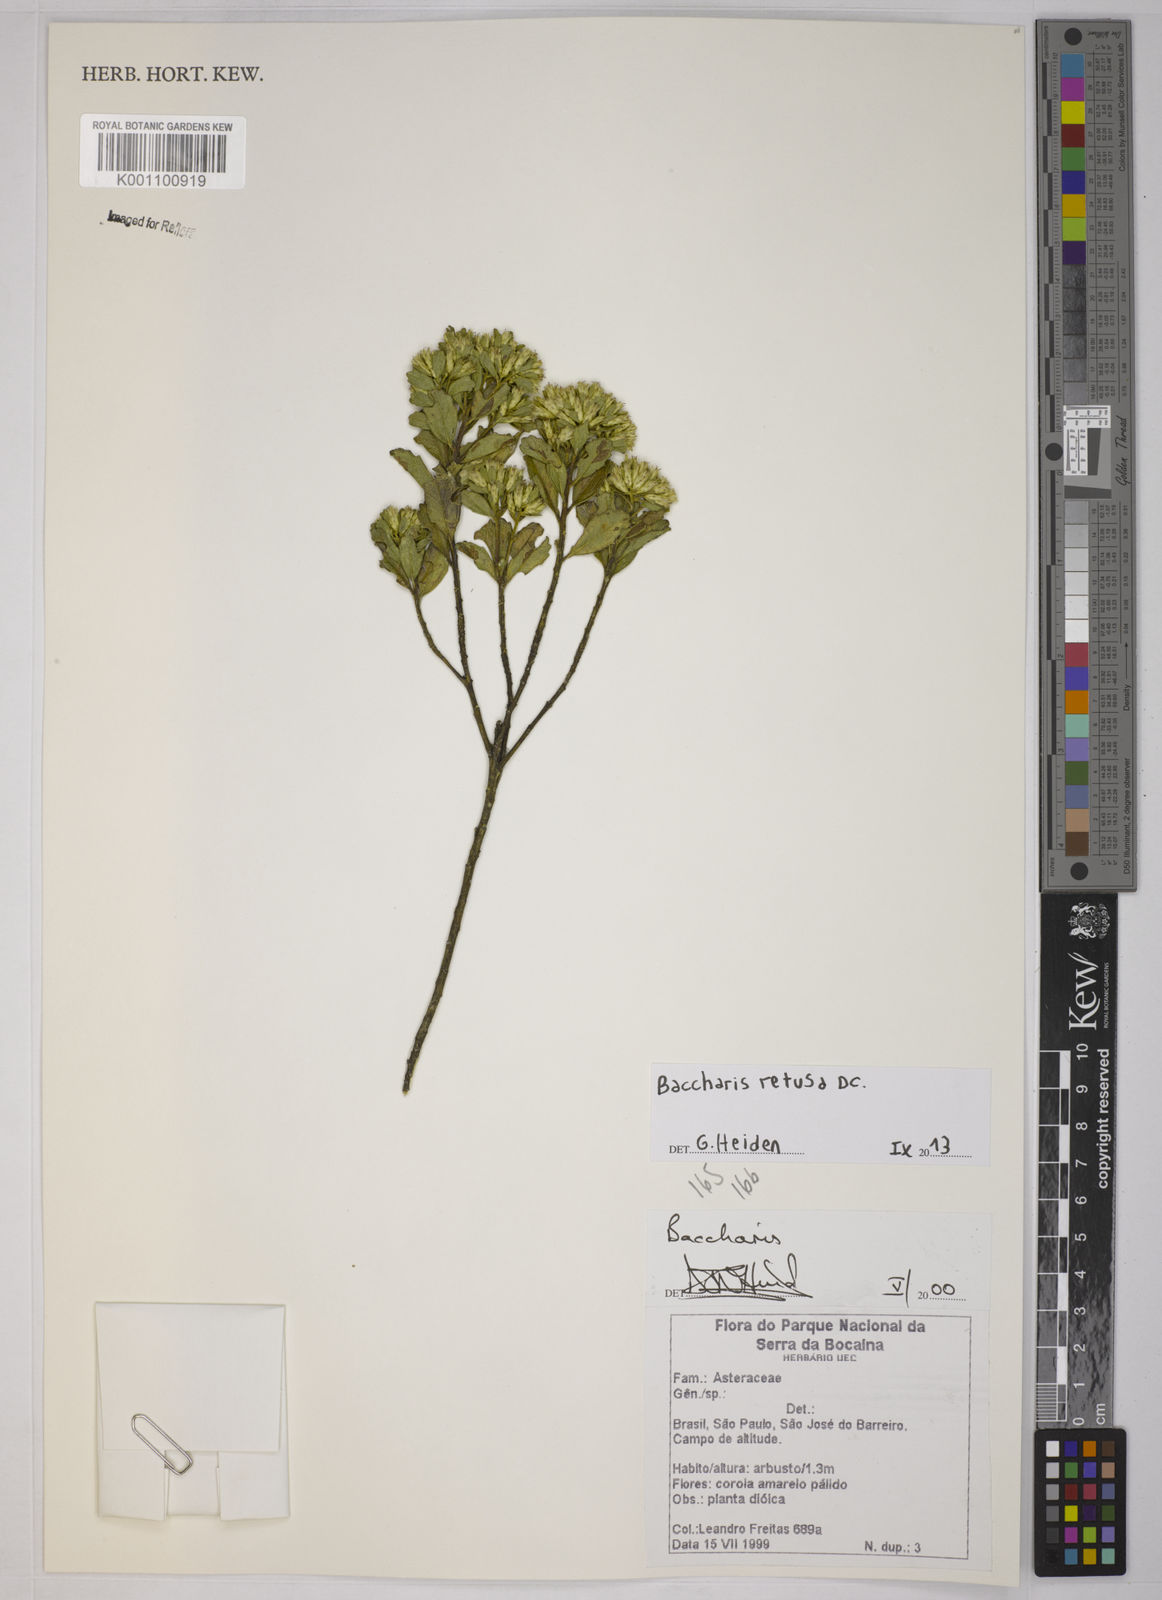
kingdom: Plantae
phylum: Tracheophyta
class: Magnoliopsida
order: Asterales
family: Asteraceae
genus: Baccharis
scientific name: Baccharis retusa
